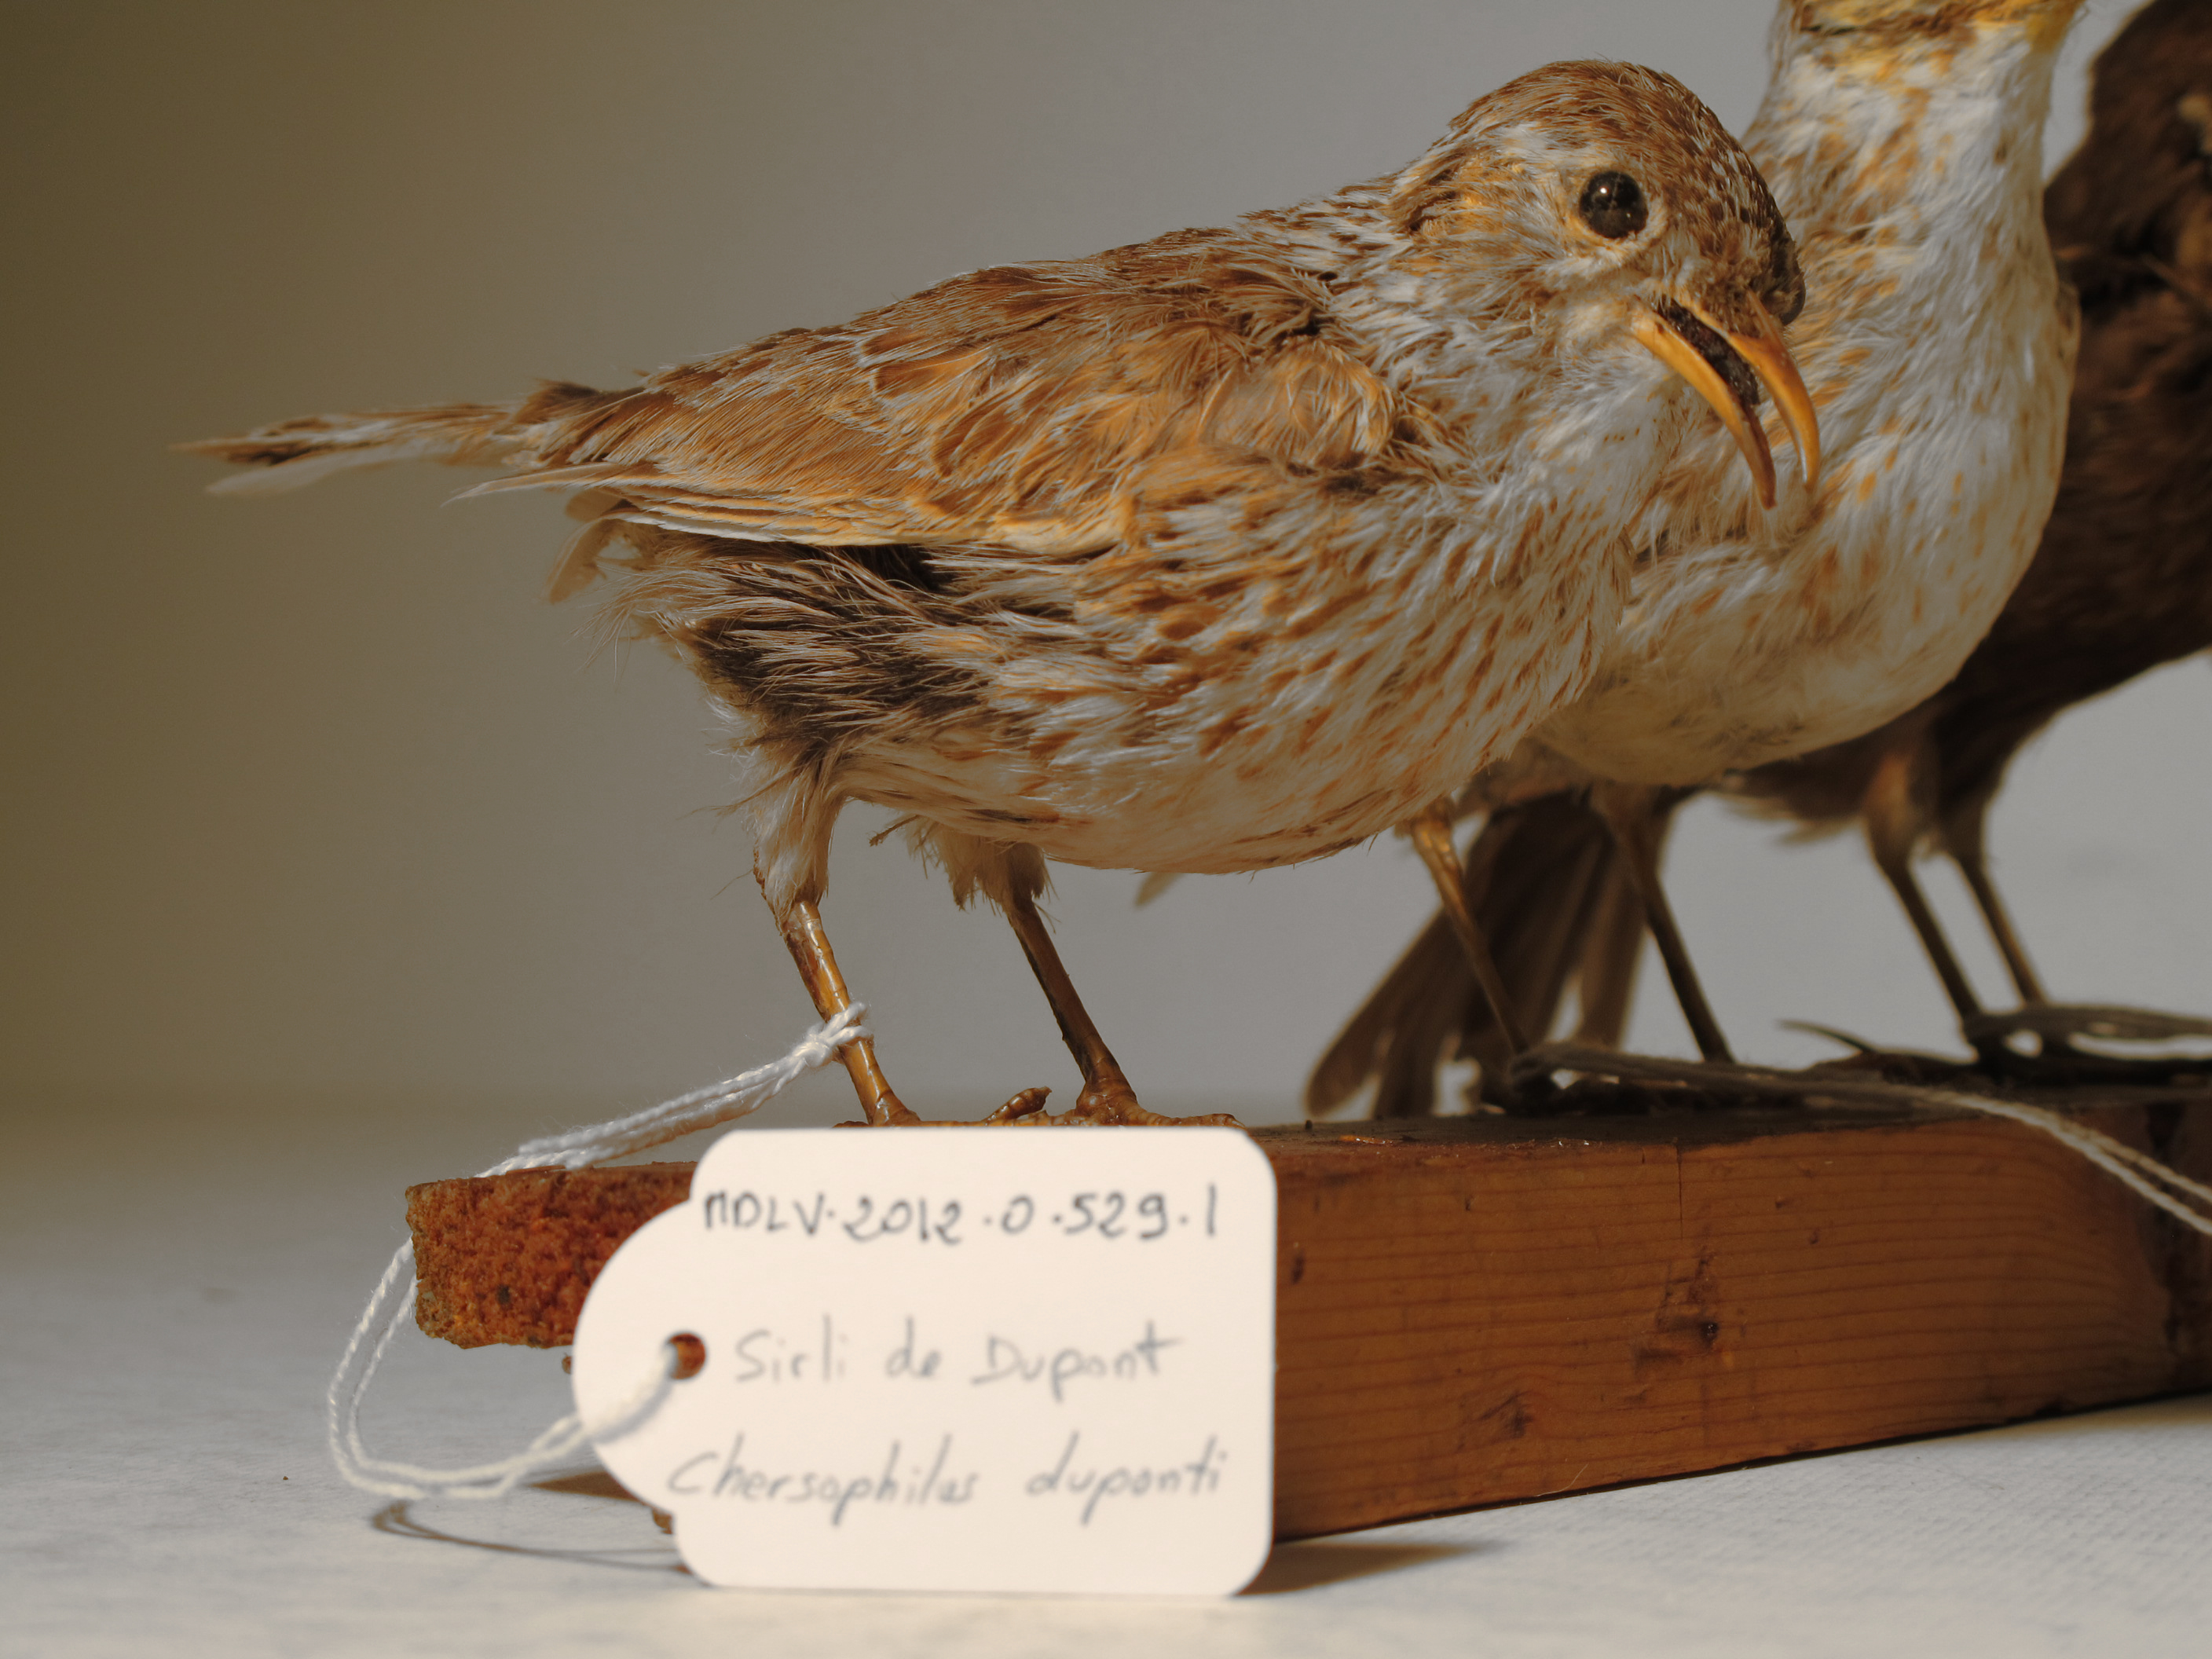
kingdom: Animalia
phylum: Chordata
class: Aves
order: Passeriformes
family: Alaudidae
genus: Chersophilus
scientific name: Chersophilus duponti
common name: Dupont's Lark
